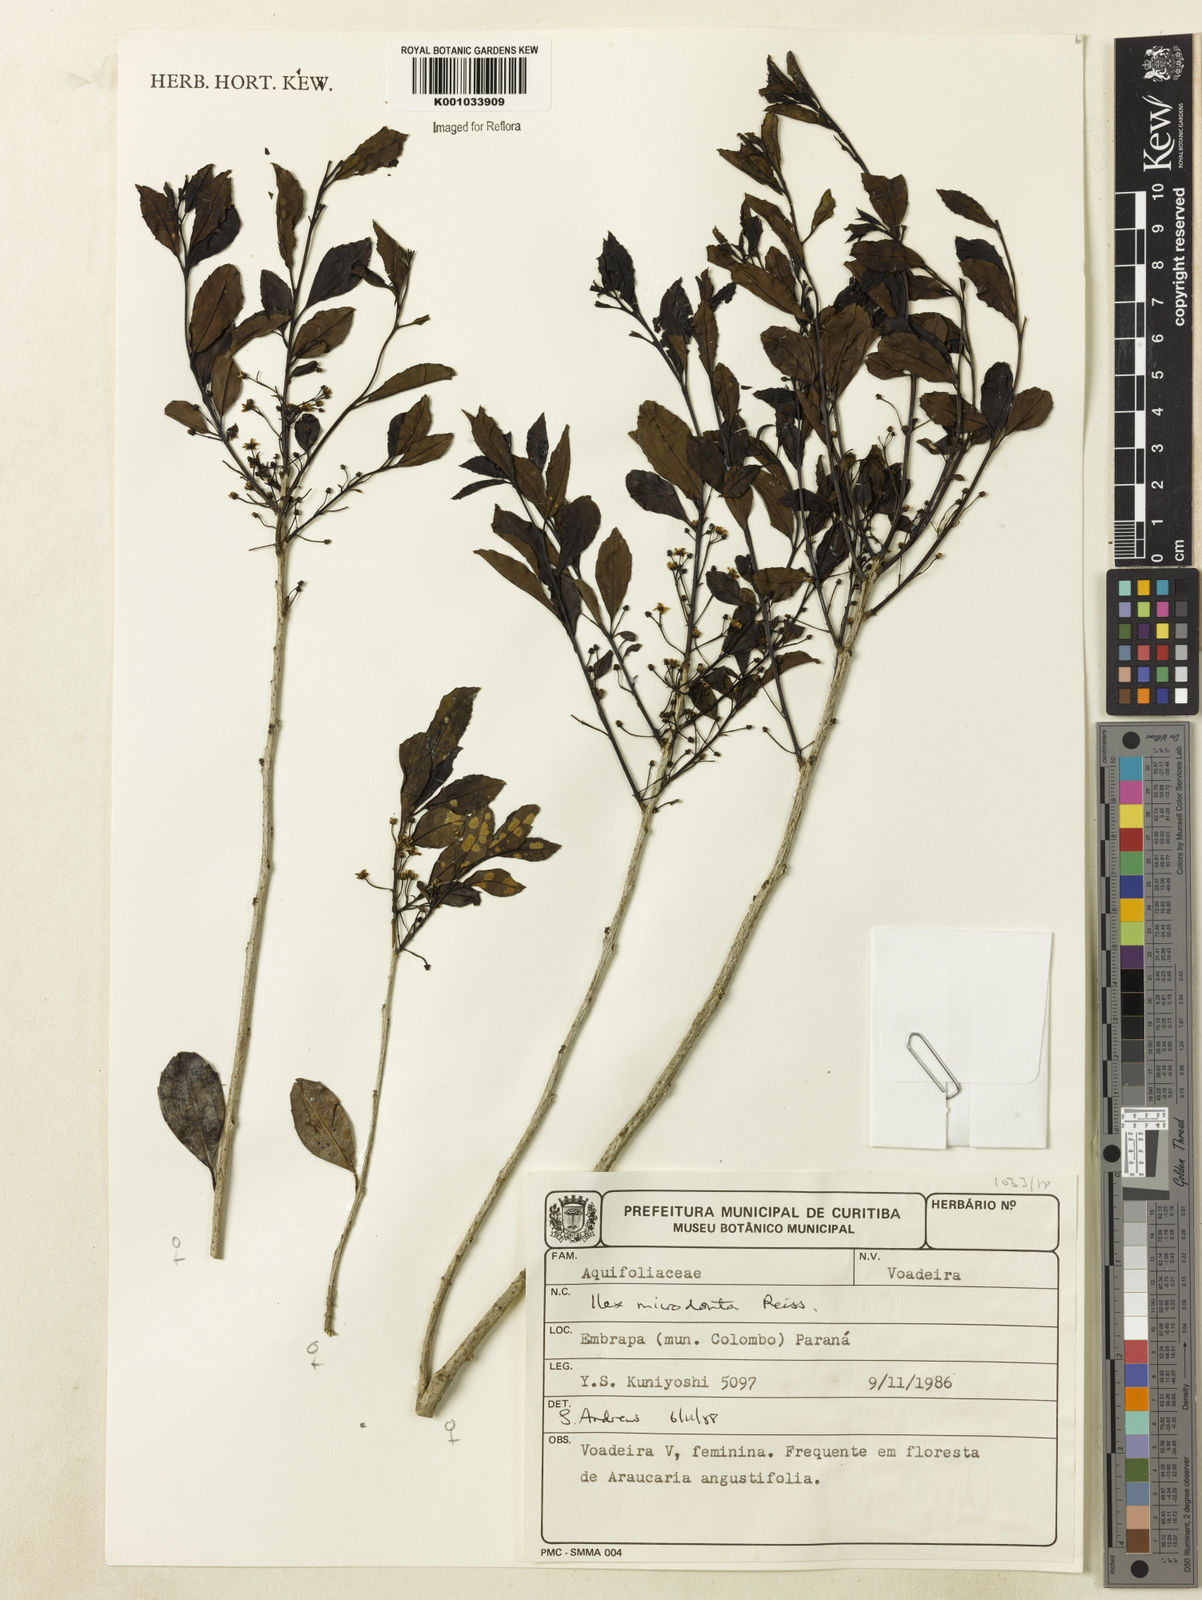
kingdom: Plantae
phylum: Tracheophyta
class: Magnoliopsida
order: Aquifoliales
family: Aquifoliaceae
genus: Ilex
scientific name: Ilex microdonta
